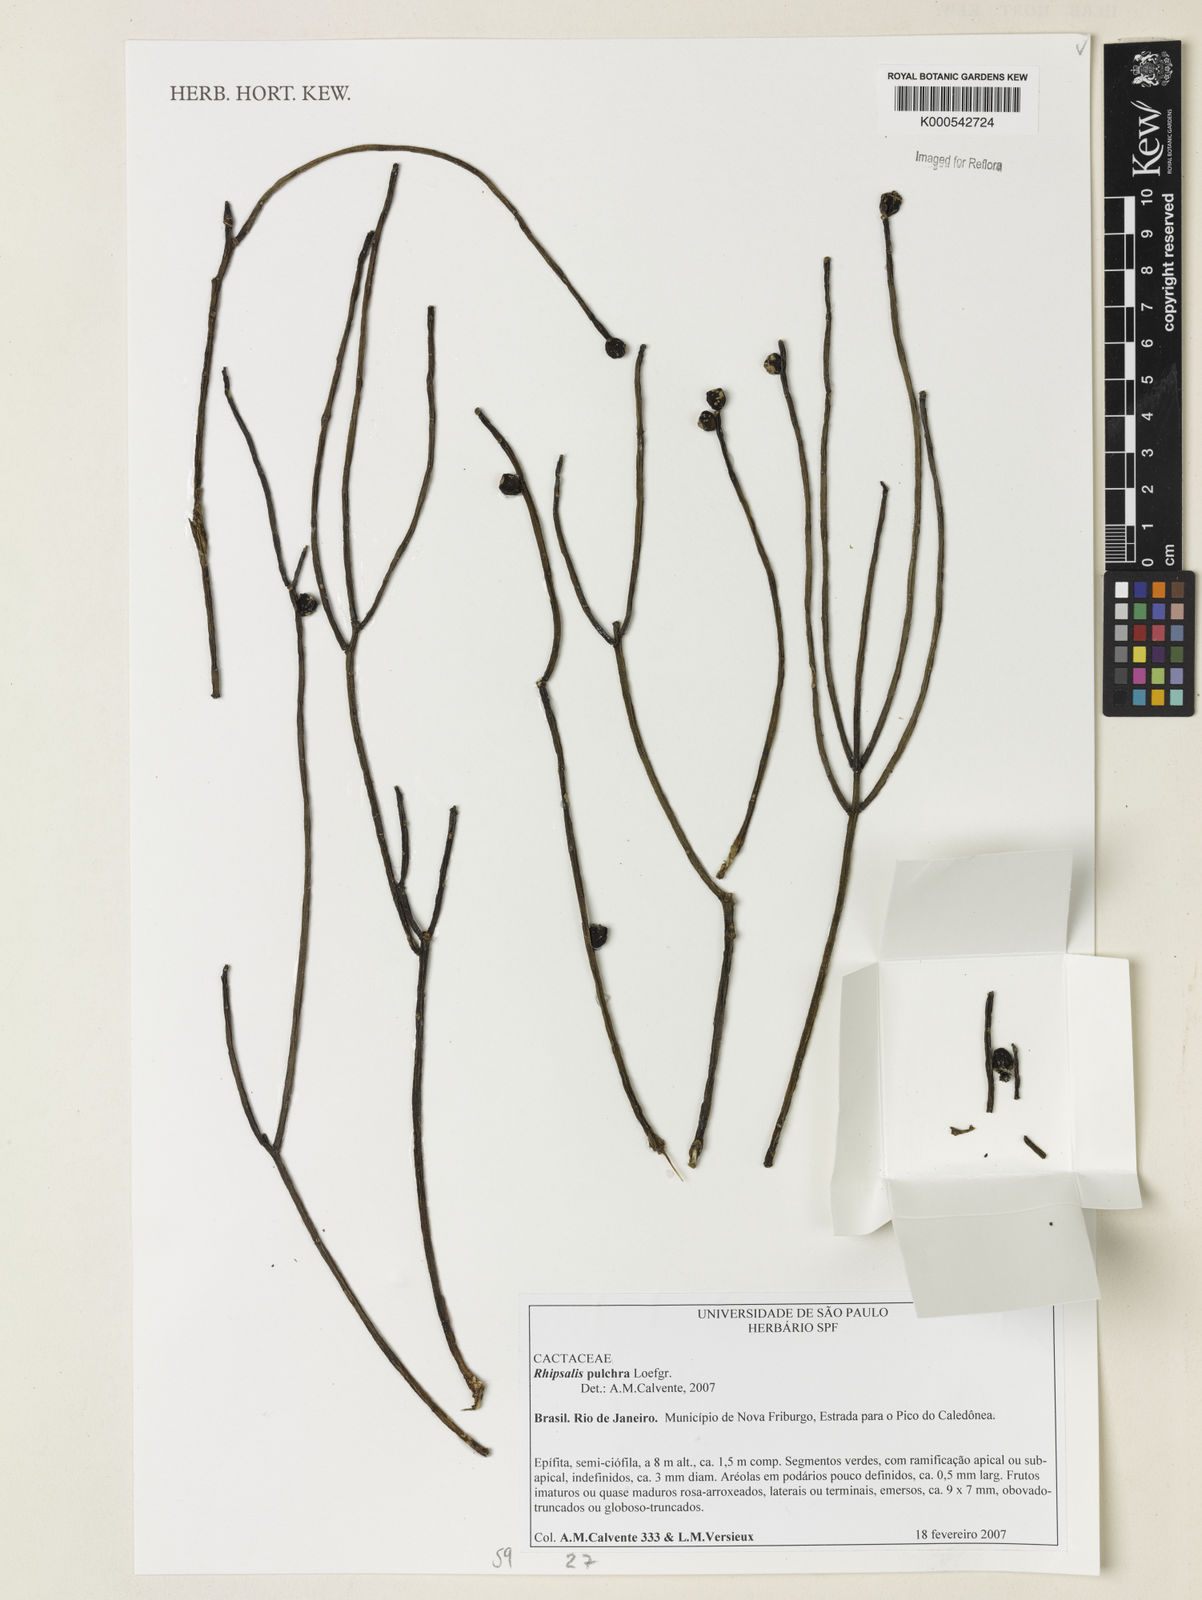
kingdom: Plantae
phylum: Tracheophyta
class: Magnoliopsida
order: Caryophyllales
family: Cactaceae
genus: Rhipsalis
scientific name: Rhipsalis pulchra
